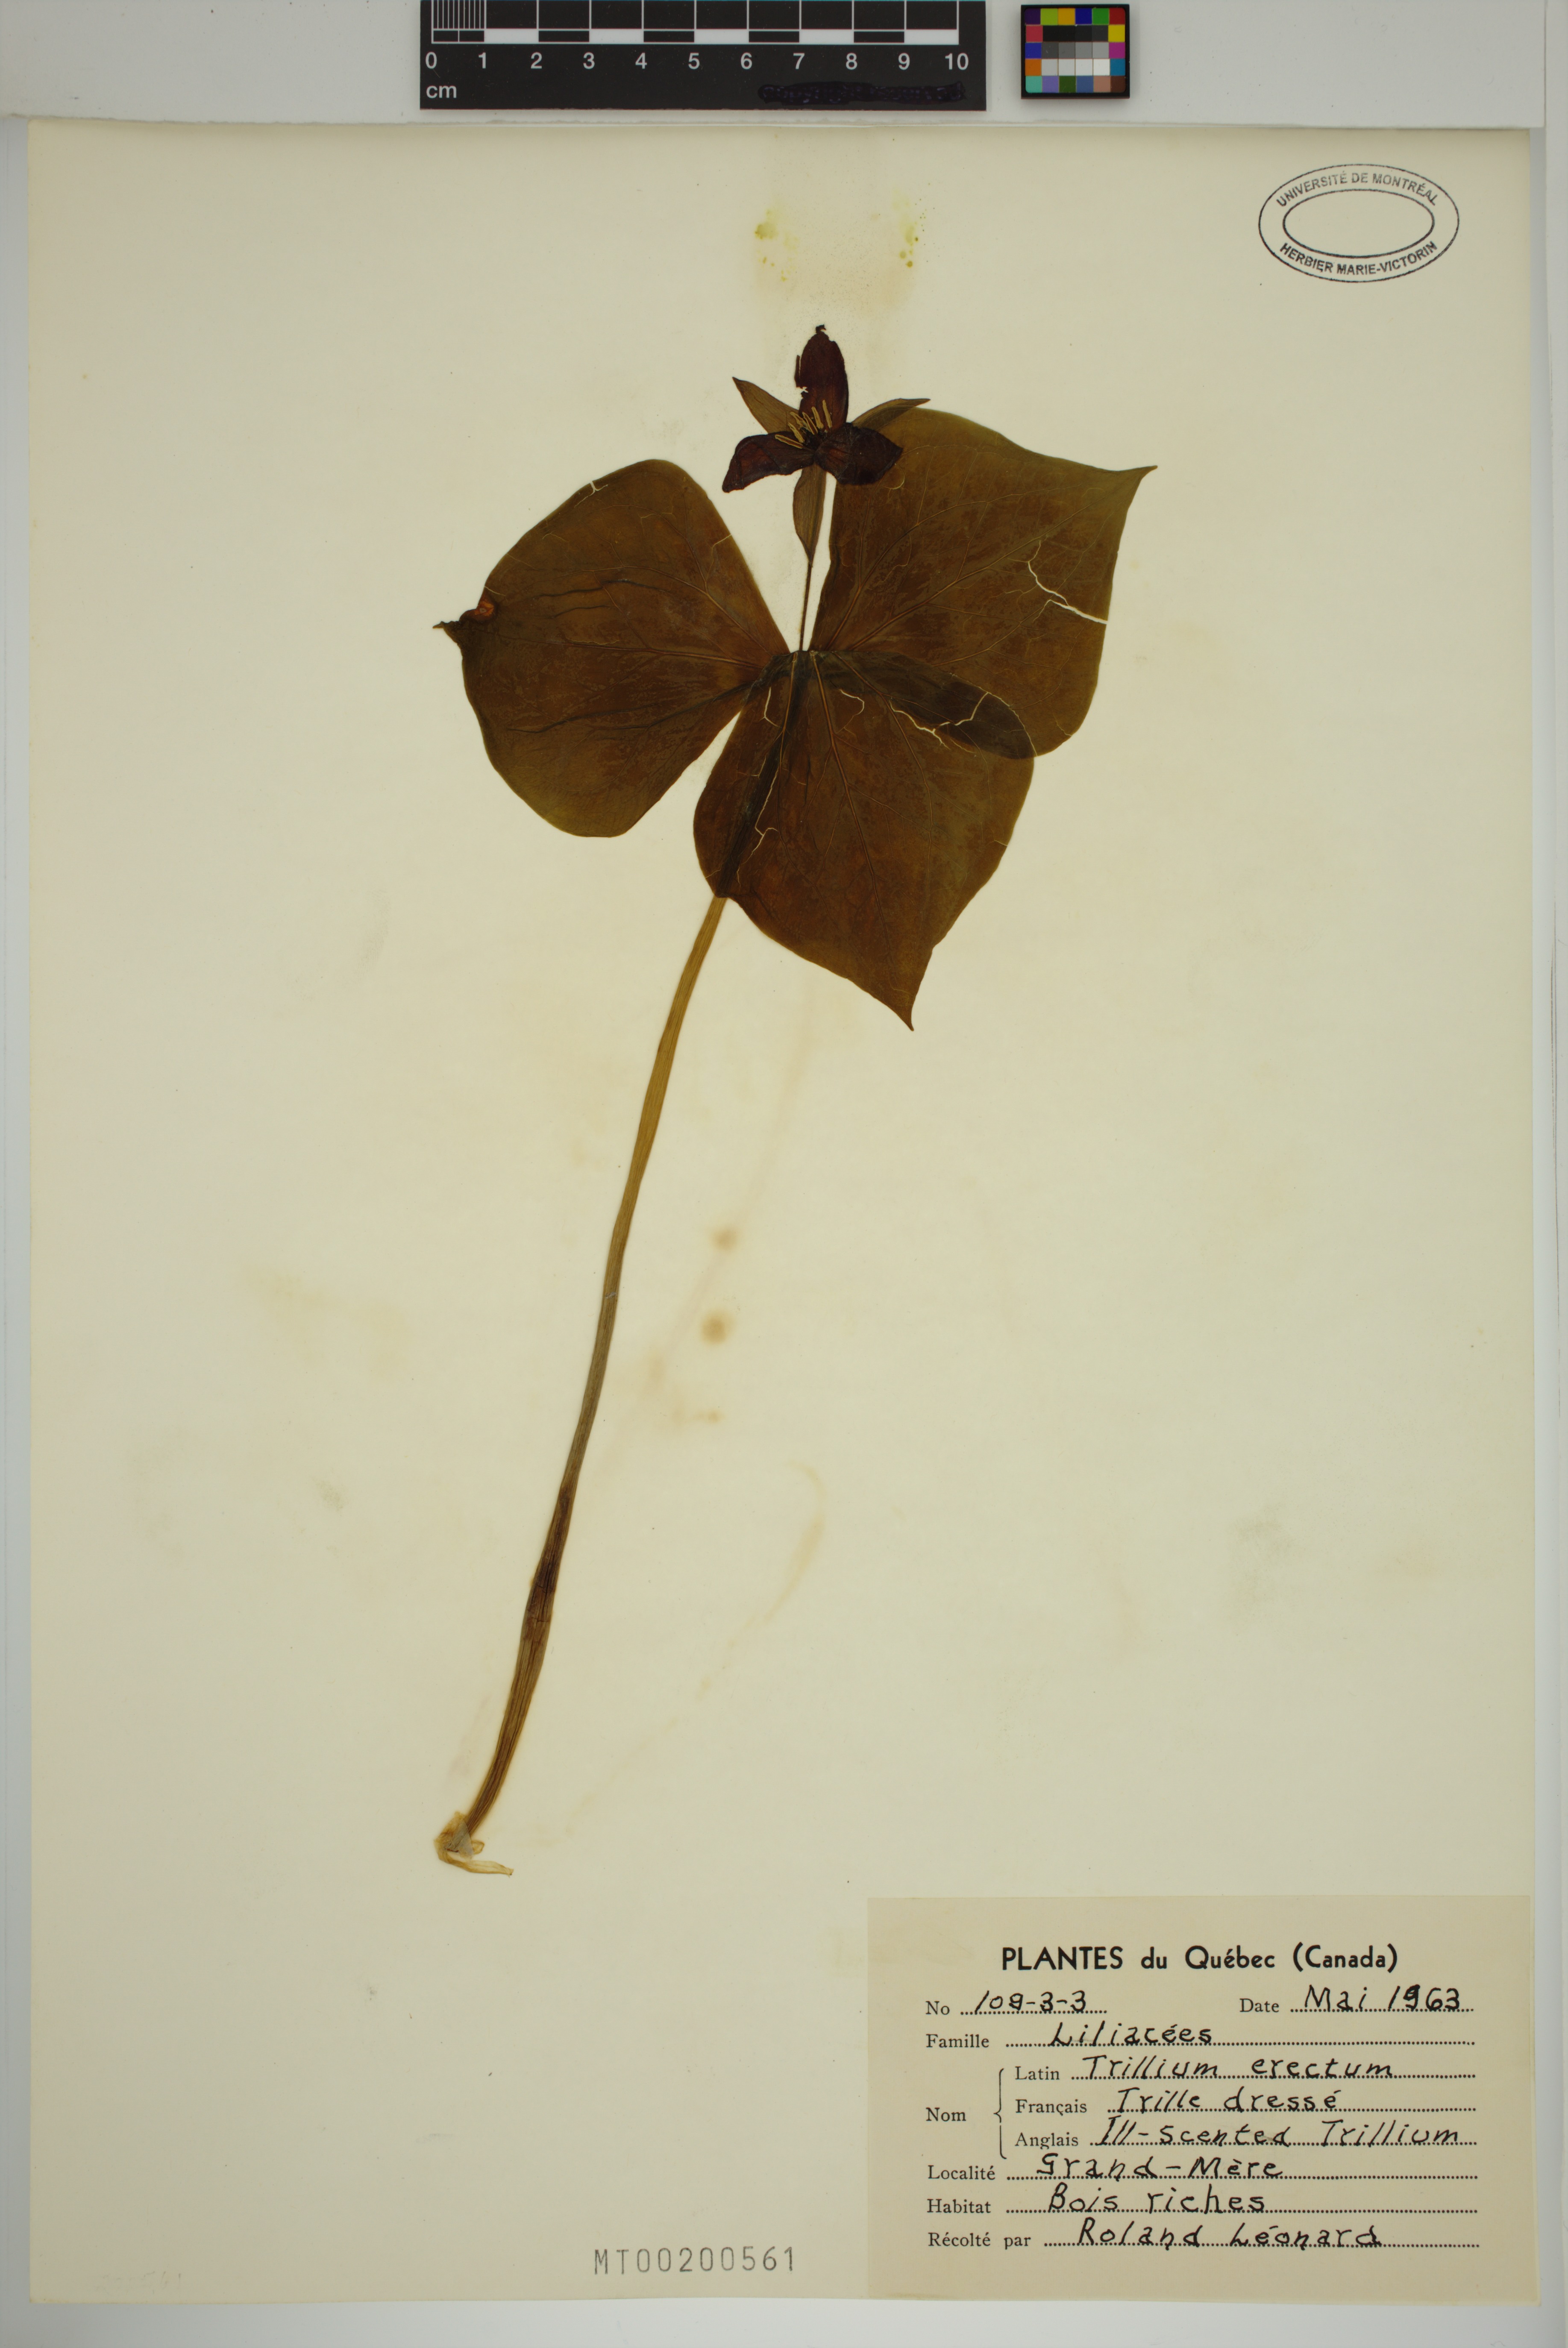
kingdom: Plantae
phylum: Tracheophyta
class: Liliopsida
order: Liliales
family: Melanthiaceae
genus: Trillium
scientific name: Trillium erectum
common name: Purple trillium
